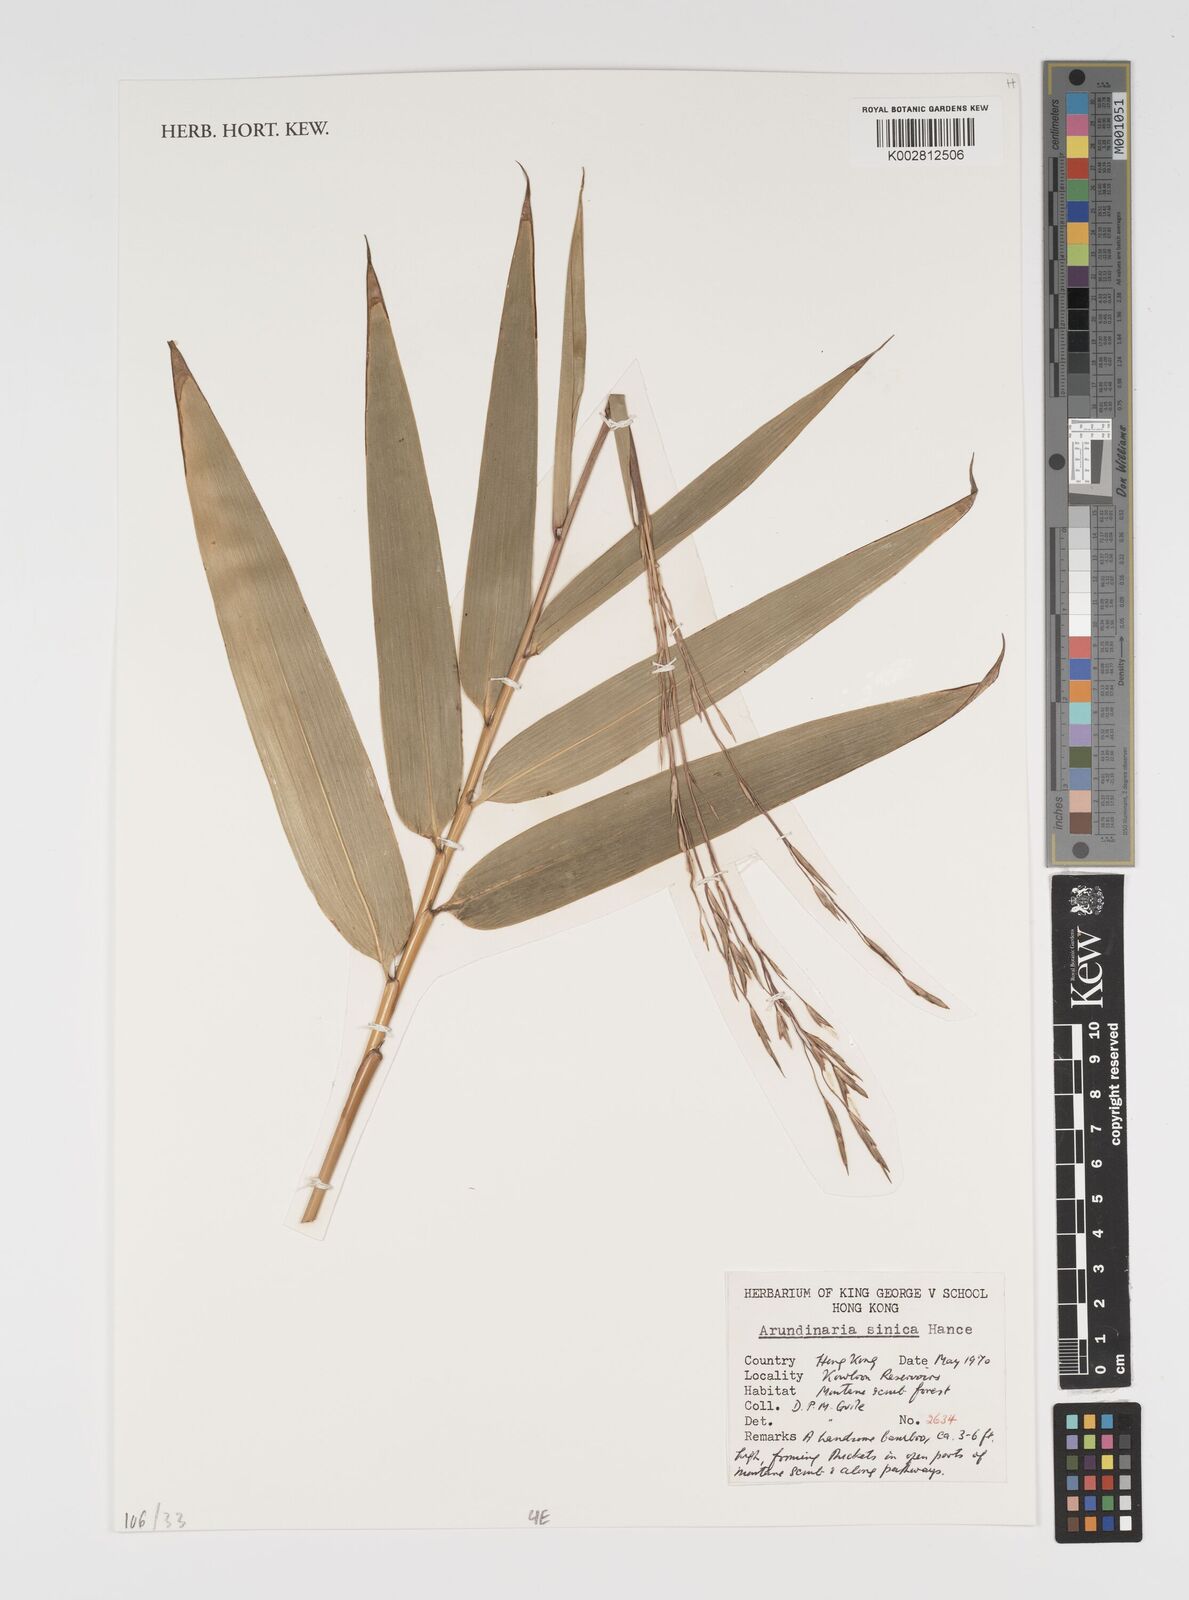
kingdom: Plantae
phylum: Tracheophyta
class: Liliopsida
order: Poales
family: Poaceae
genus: Indocalamus
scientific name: Indocalamus sinicus
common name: Chinese cane
